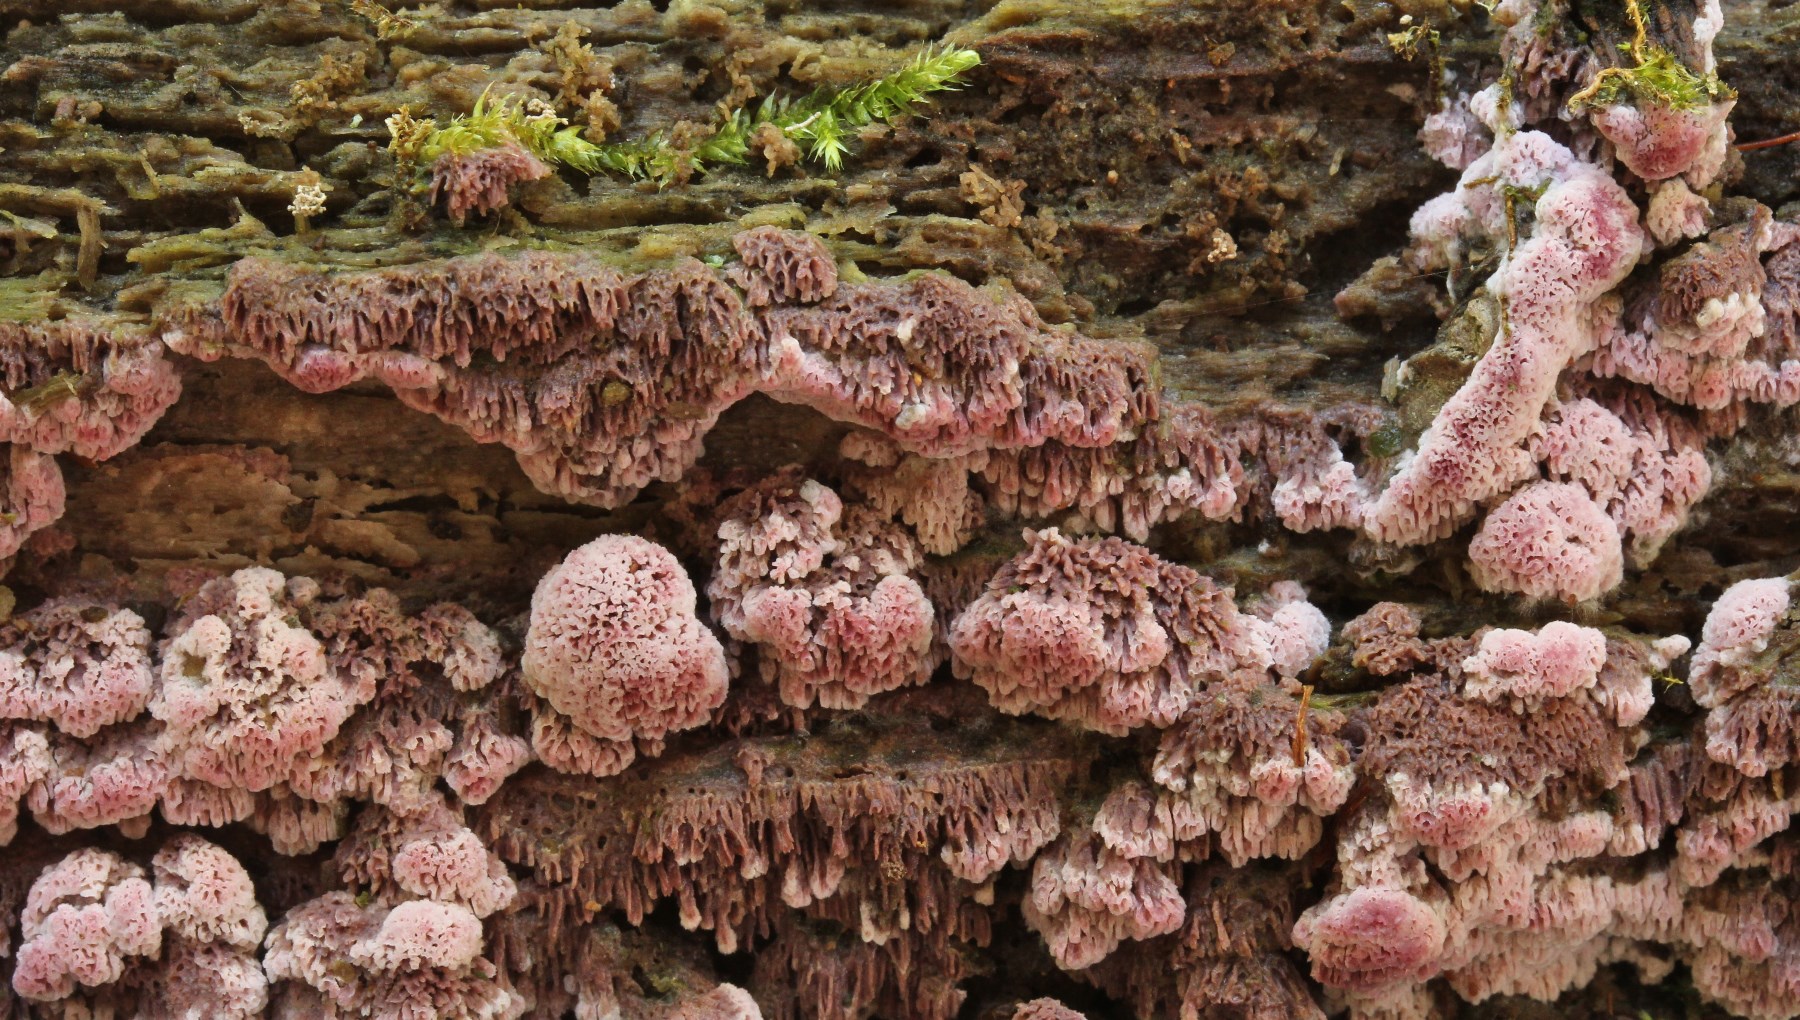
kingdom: Fungi
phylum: Basidiomycota
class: Agaricomycetes
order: Polyporales
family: Irpicaceae
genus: Ceriporia
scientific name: Ceriporia excelsa
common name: lilla voksporesvamp
